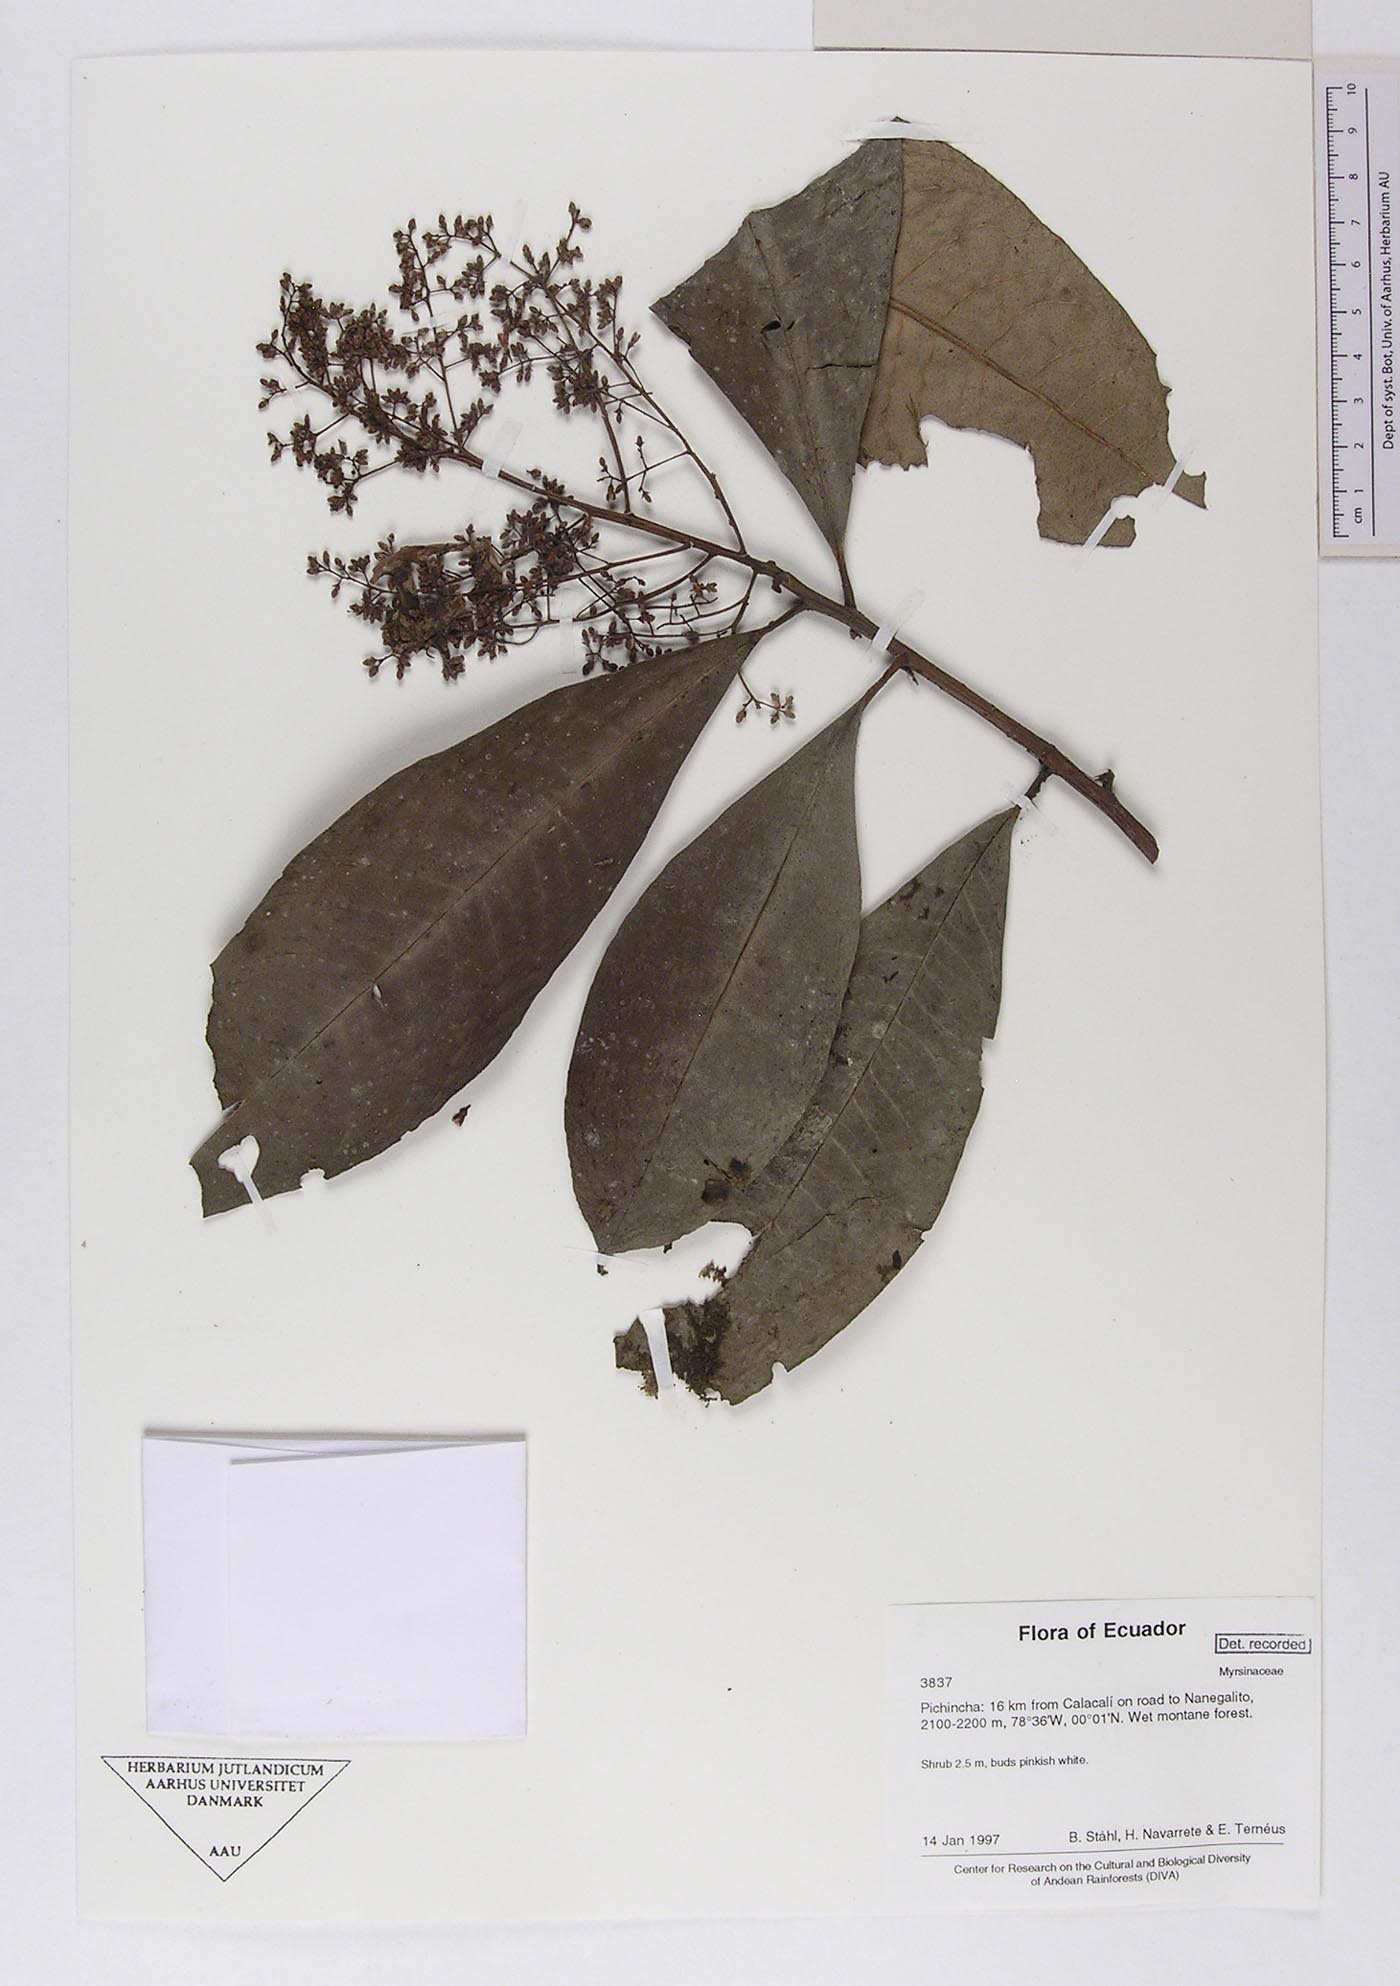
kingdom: Plantae
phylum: Tracheophyta
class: Magnoliopsida
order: Ericales
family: Primulaceae
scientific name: Primulaceae
